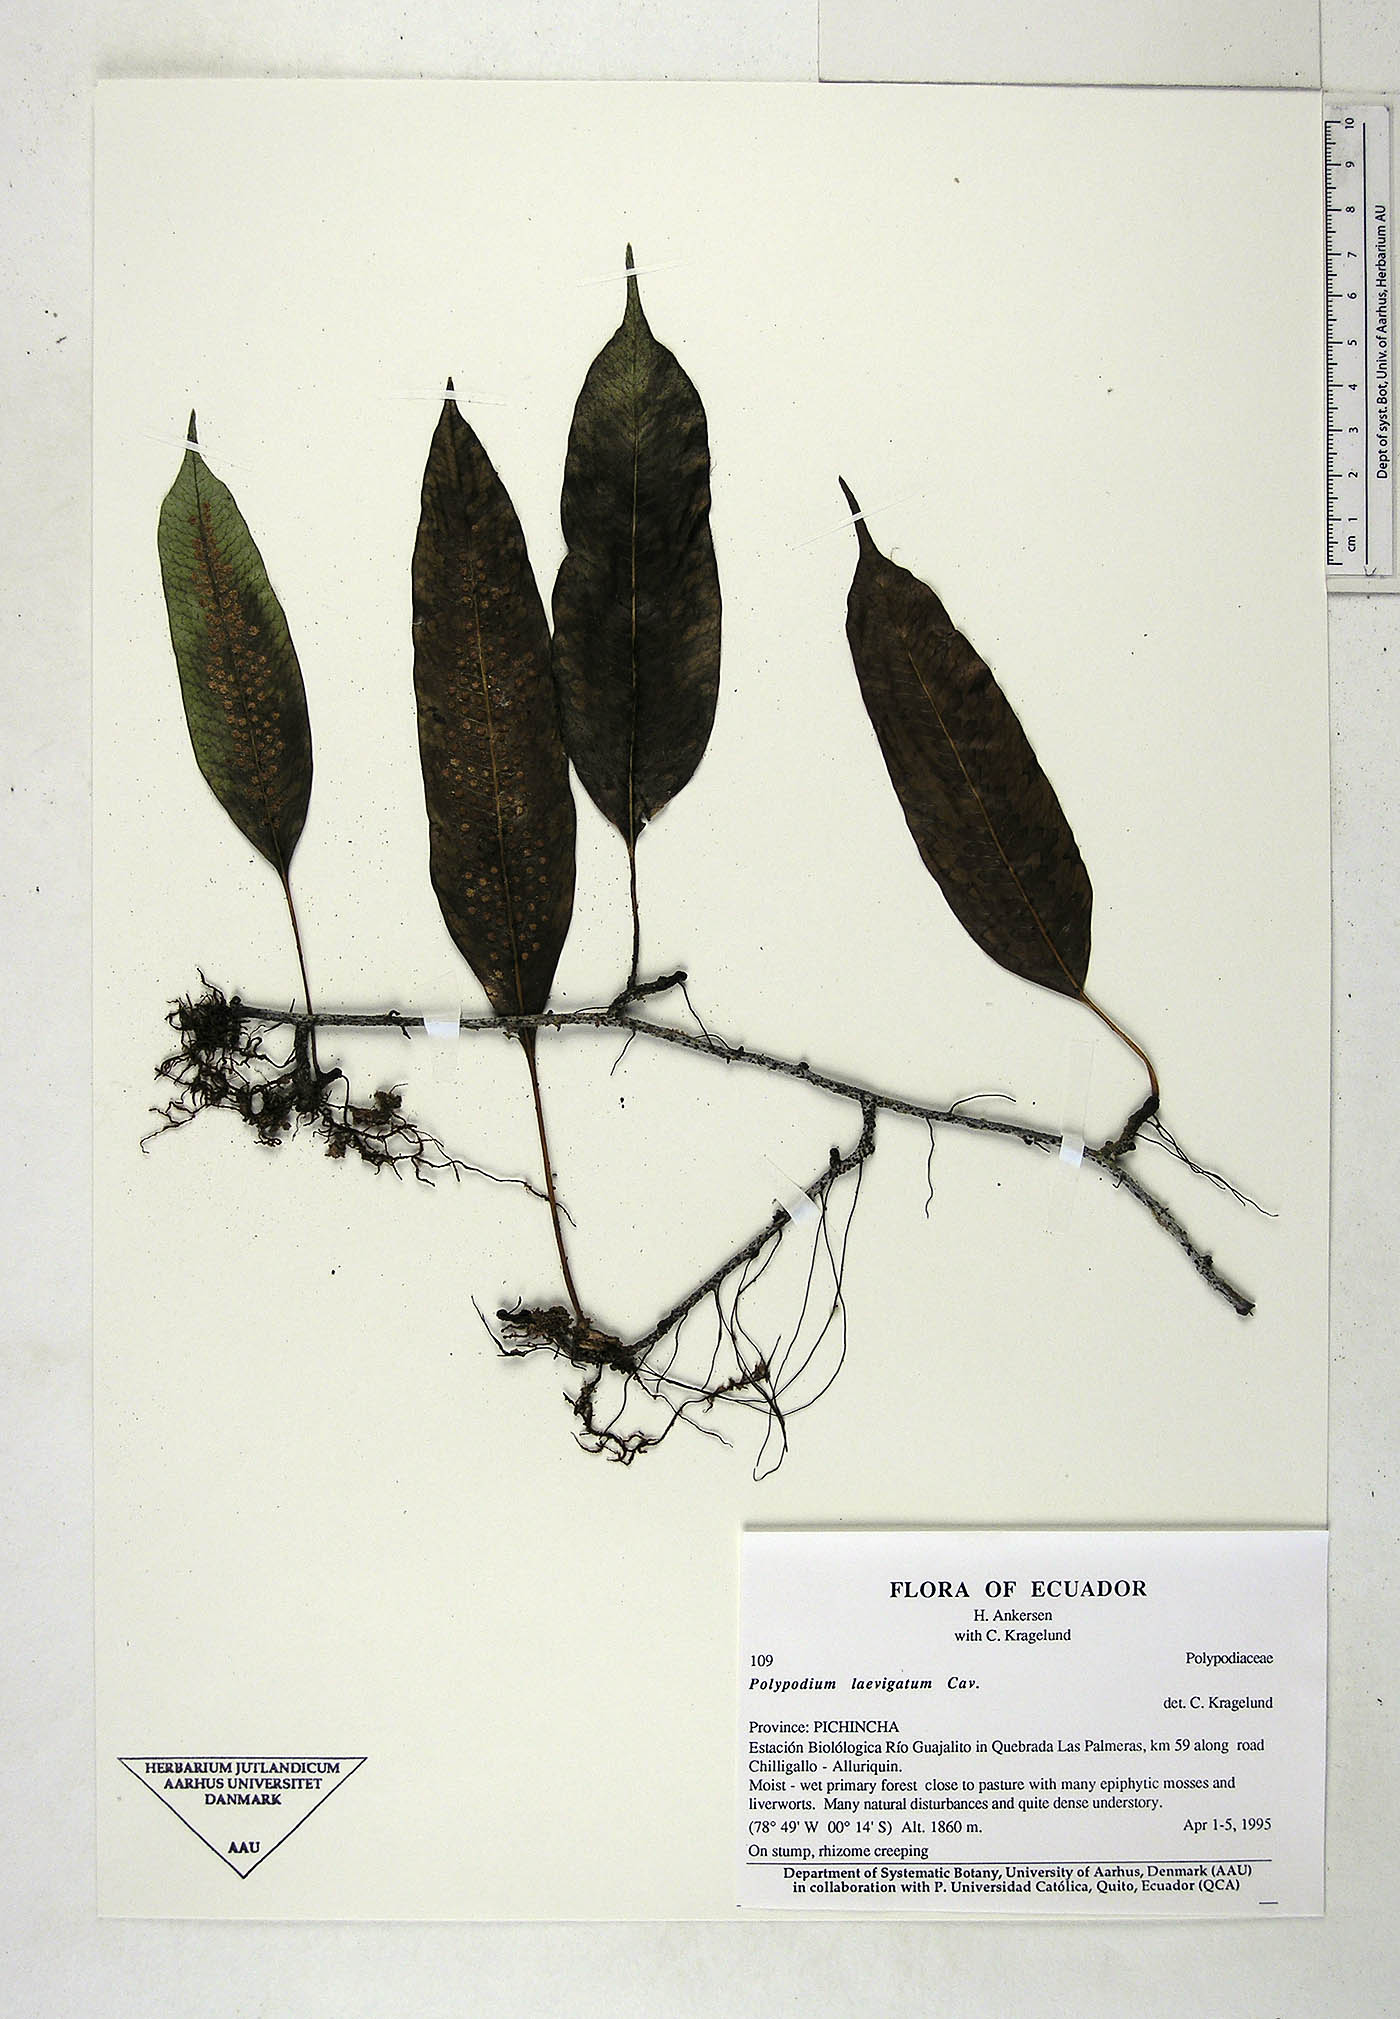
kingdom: Plantae
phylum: Tracheophyta
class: Polypodiopsida
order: Polypodiales
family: Polypodiaceae
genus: Serpocaulon
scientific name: Serpocaulon laevigatum
